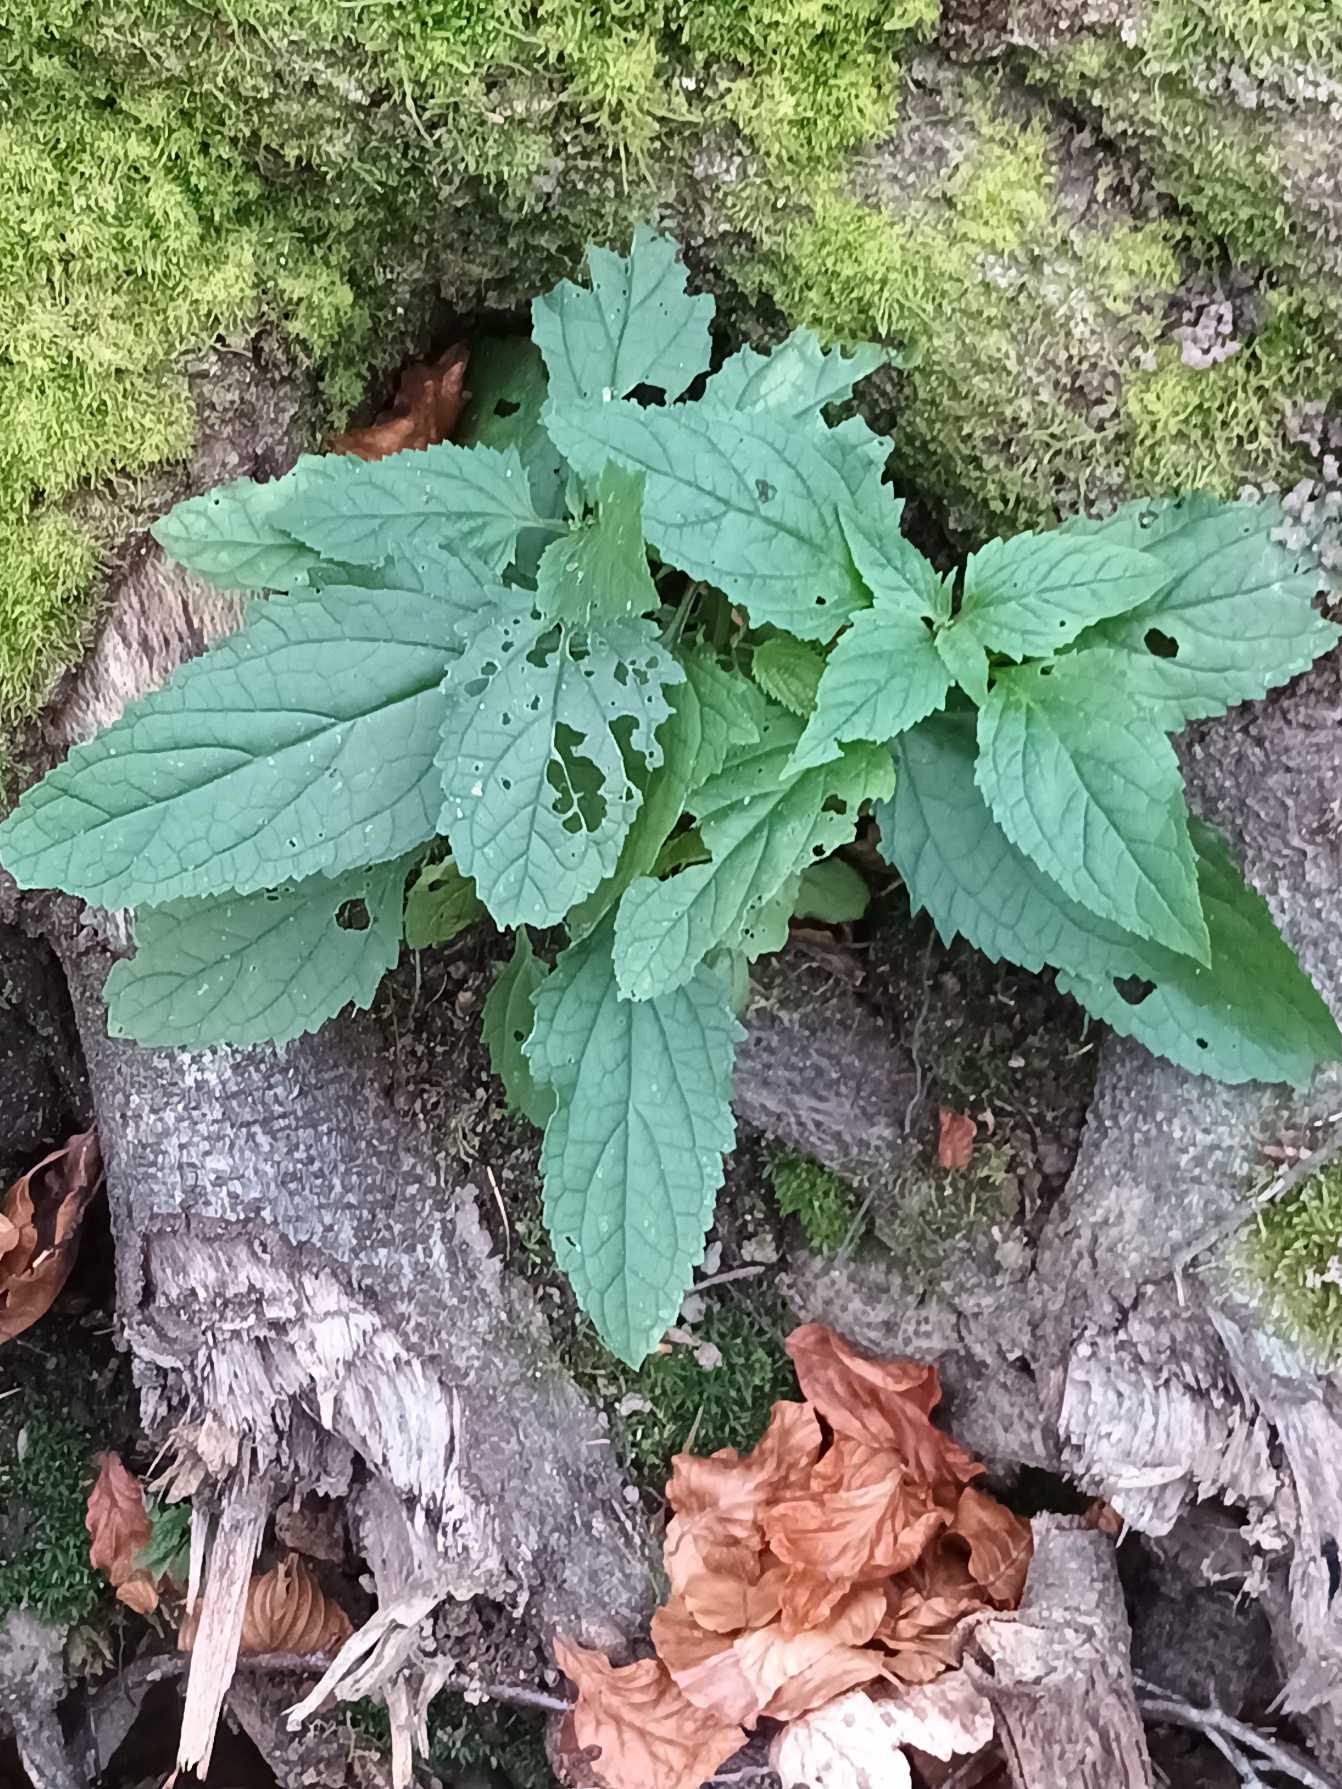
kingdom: Plantae
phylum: Tracheophyta
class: Magnoliopsida
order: Lamiales
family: Scrophulariaceae
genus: Scrophularia
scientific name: Scrophularia nodosa
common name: Knoldet brunrod
